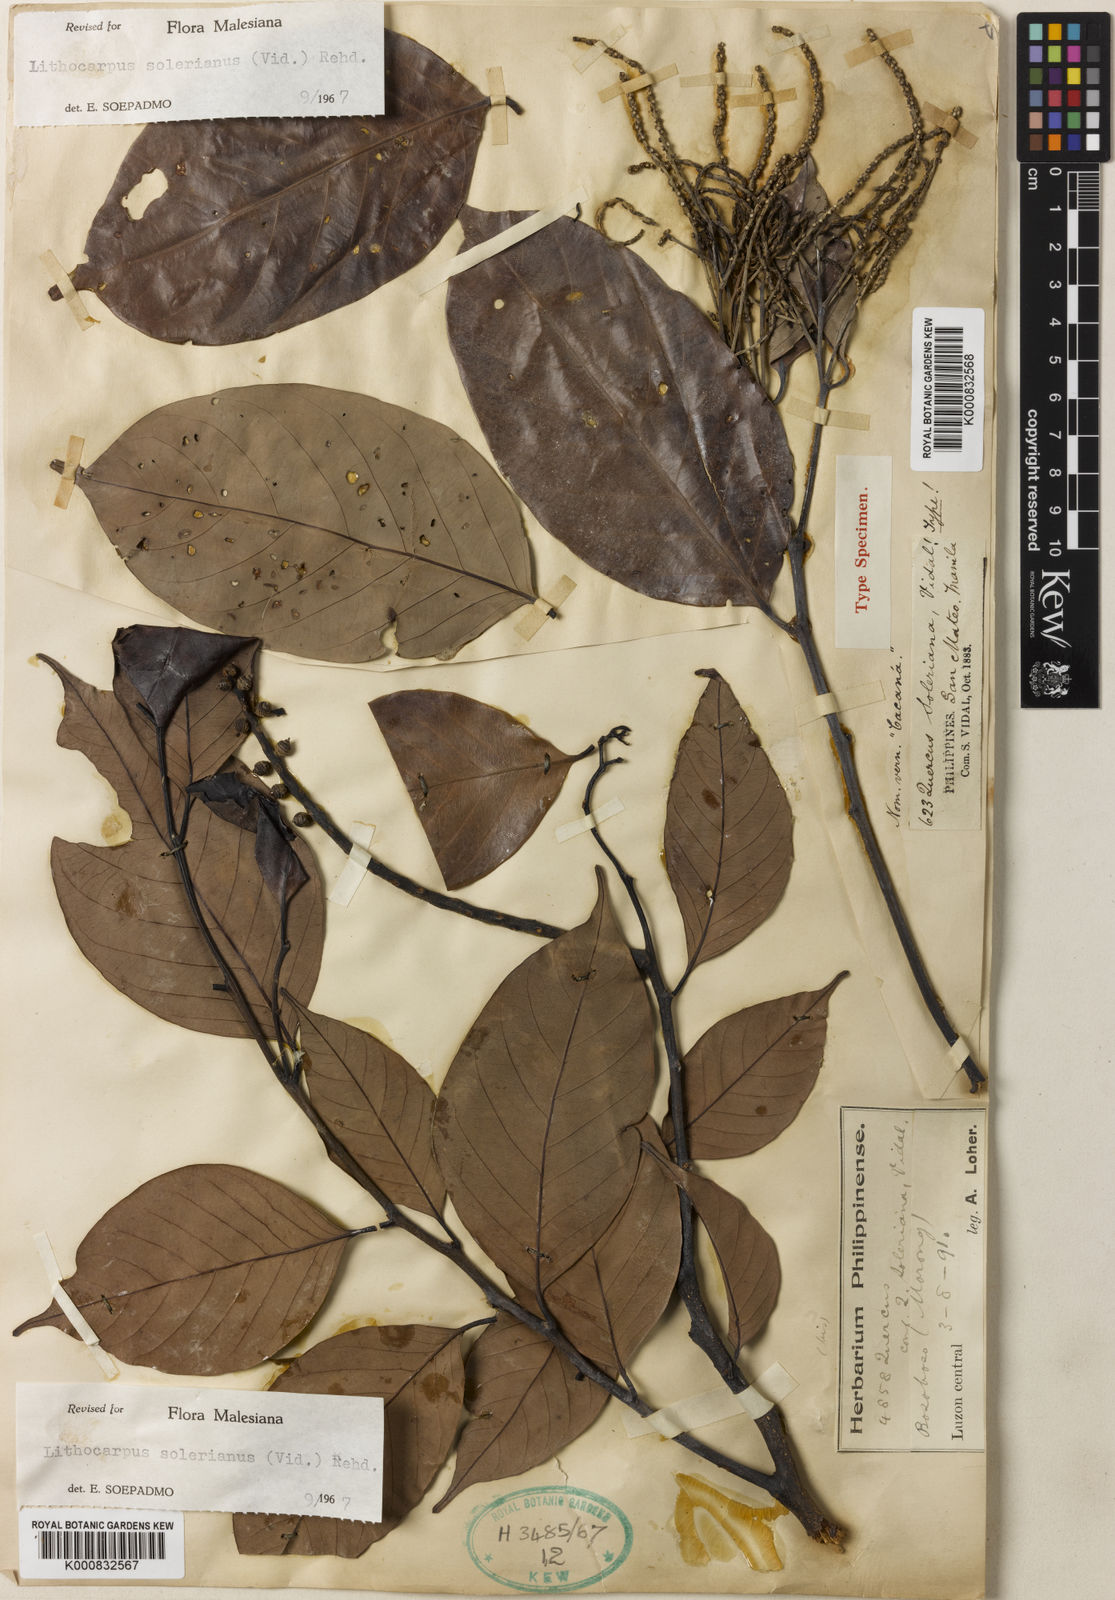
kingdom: Plantae
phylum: Tracheophyta
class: Magnoliopsida
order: Fagales
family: Fagaceae
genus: Lithocarpus
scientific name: Lithocarpus solerianus
